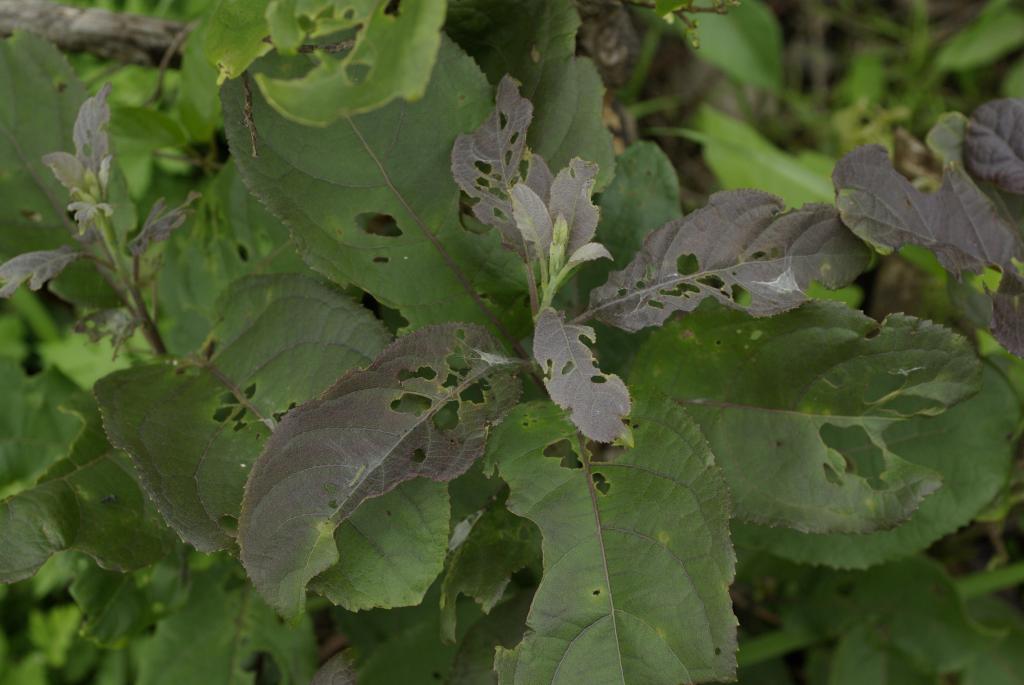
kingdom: Plantae
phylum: Tracheophyta
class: Magnoliopsida
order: Boraginales
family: Ehretiaceae
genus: Ehretia
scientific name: Ehretia acuminata
